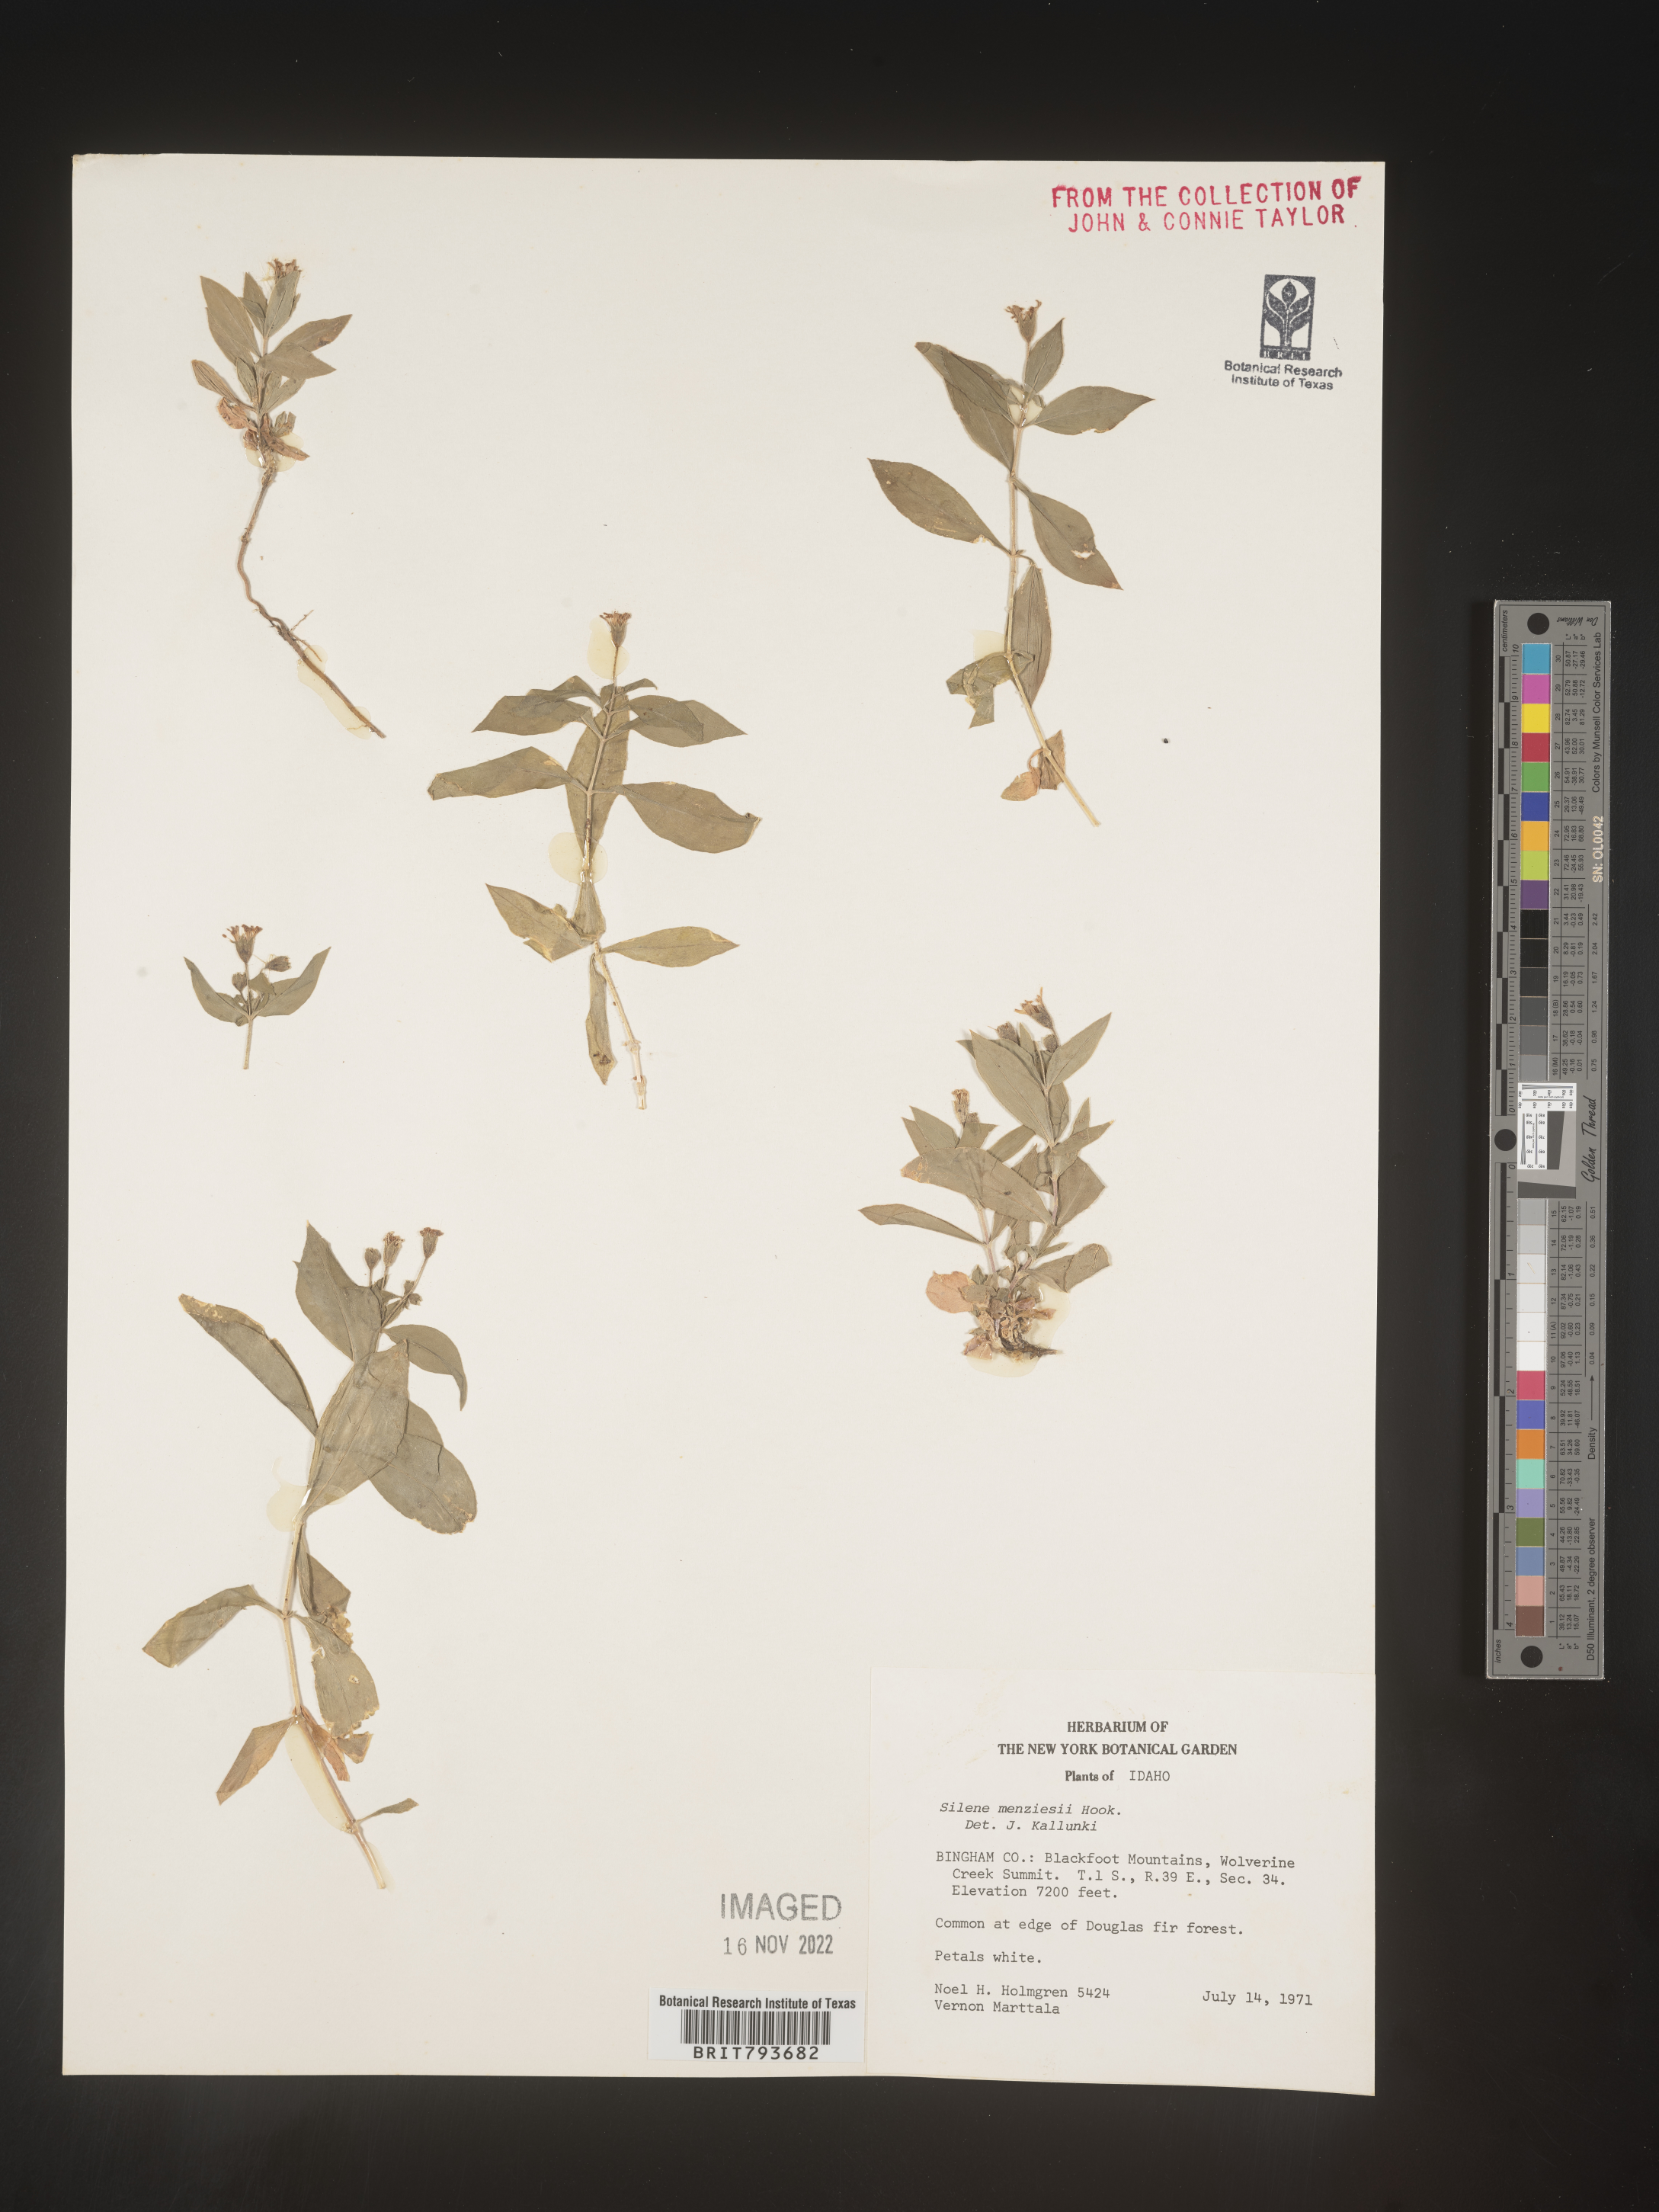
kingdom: Plantae
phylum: Tracheophyta
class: Magnoliopsida
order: Caryophyllales
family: Caryophyllaceae
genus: Silene
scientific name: Silene menziesii
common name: Menzies's catchfly
